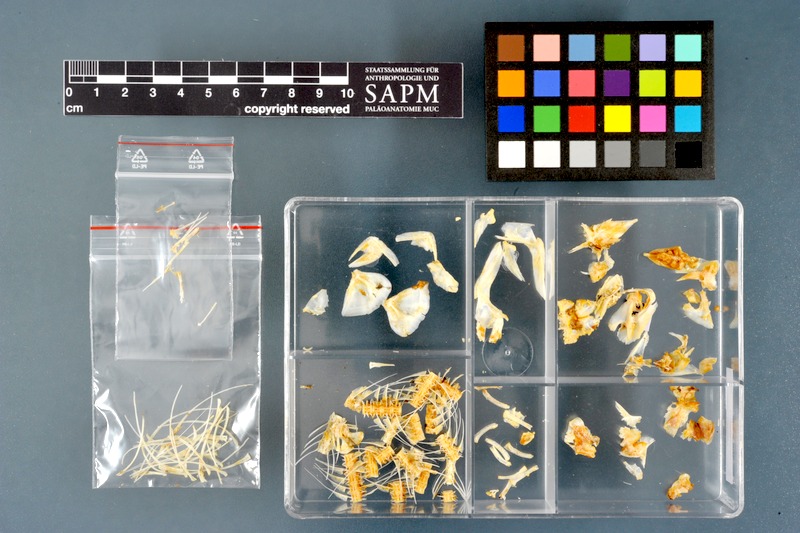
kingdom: Animalia
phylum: Chordata
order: Osteoglossiformes
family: Mormyridae
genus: Hyperopisus
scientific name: Hyperopisus bebe
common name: Ngai
